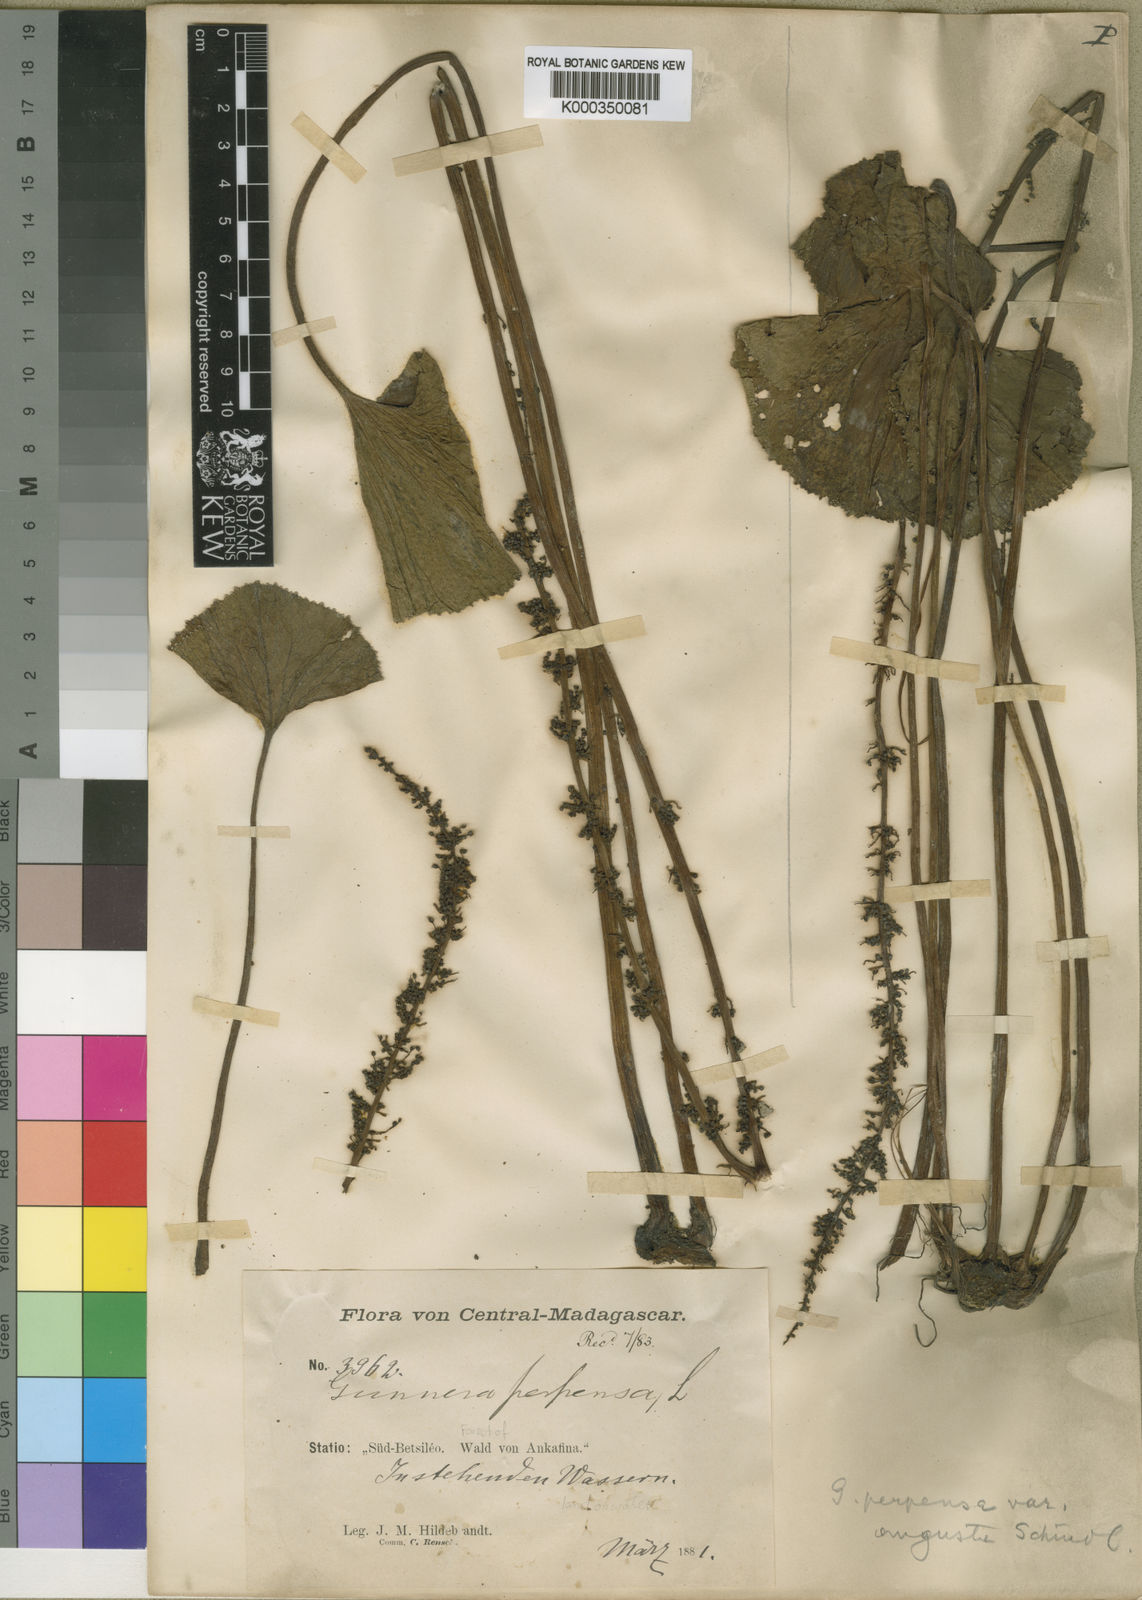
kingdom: Plantae
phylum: Tracheophyta
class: Magnoliopsida
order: Gunnerales
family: Gunneraceae
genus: Gunnera
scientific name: Gunnera perpensa
